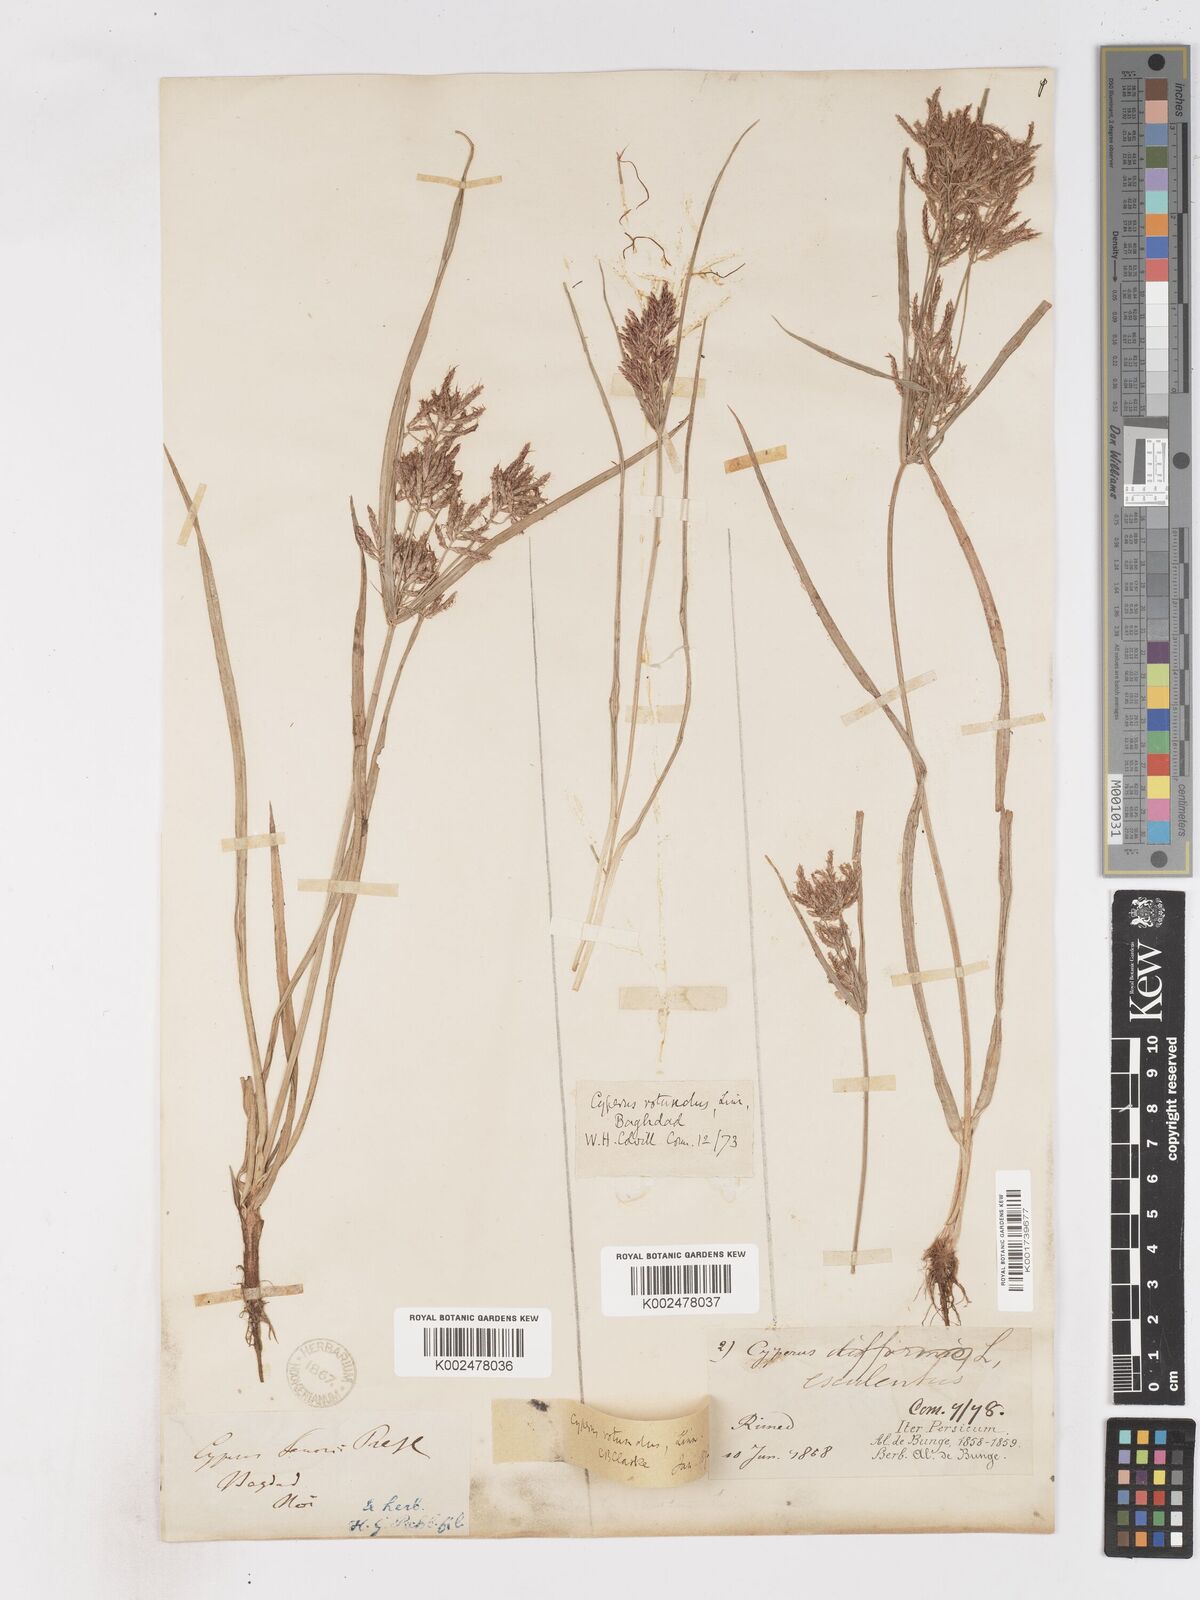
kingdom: Plantae
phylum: Tracheophyta
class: Liliopsida
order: Poales
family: Cyperaceae
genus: Cyperus
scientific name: Cyperus rotundus
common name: Nutgrass
